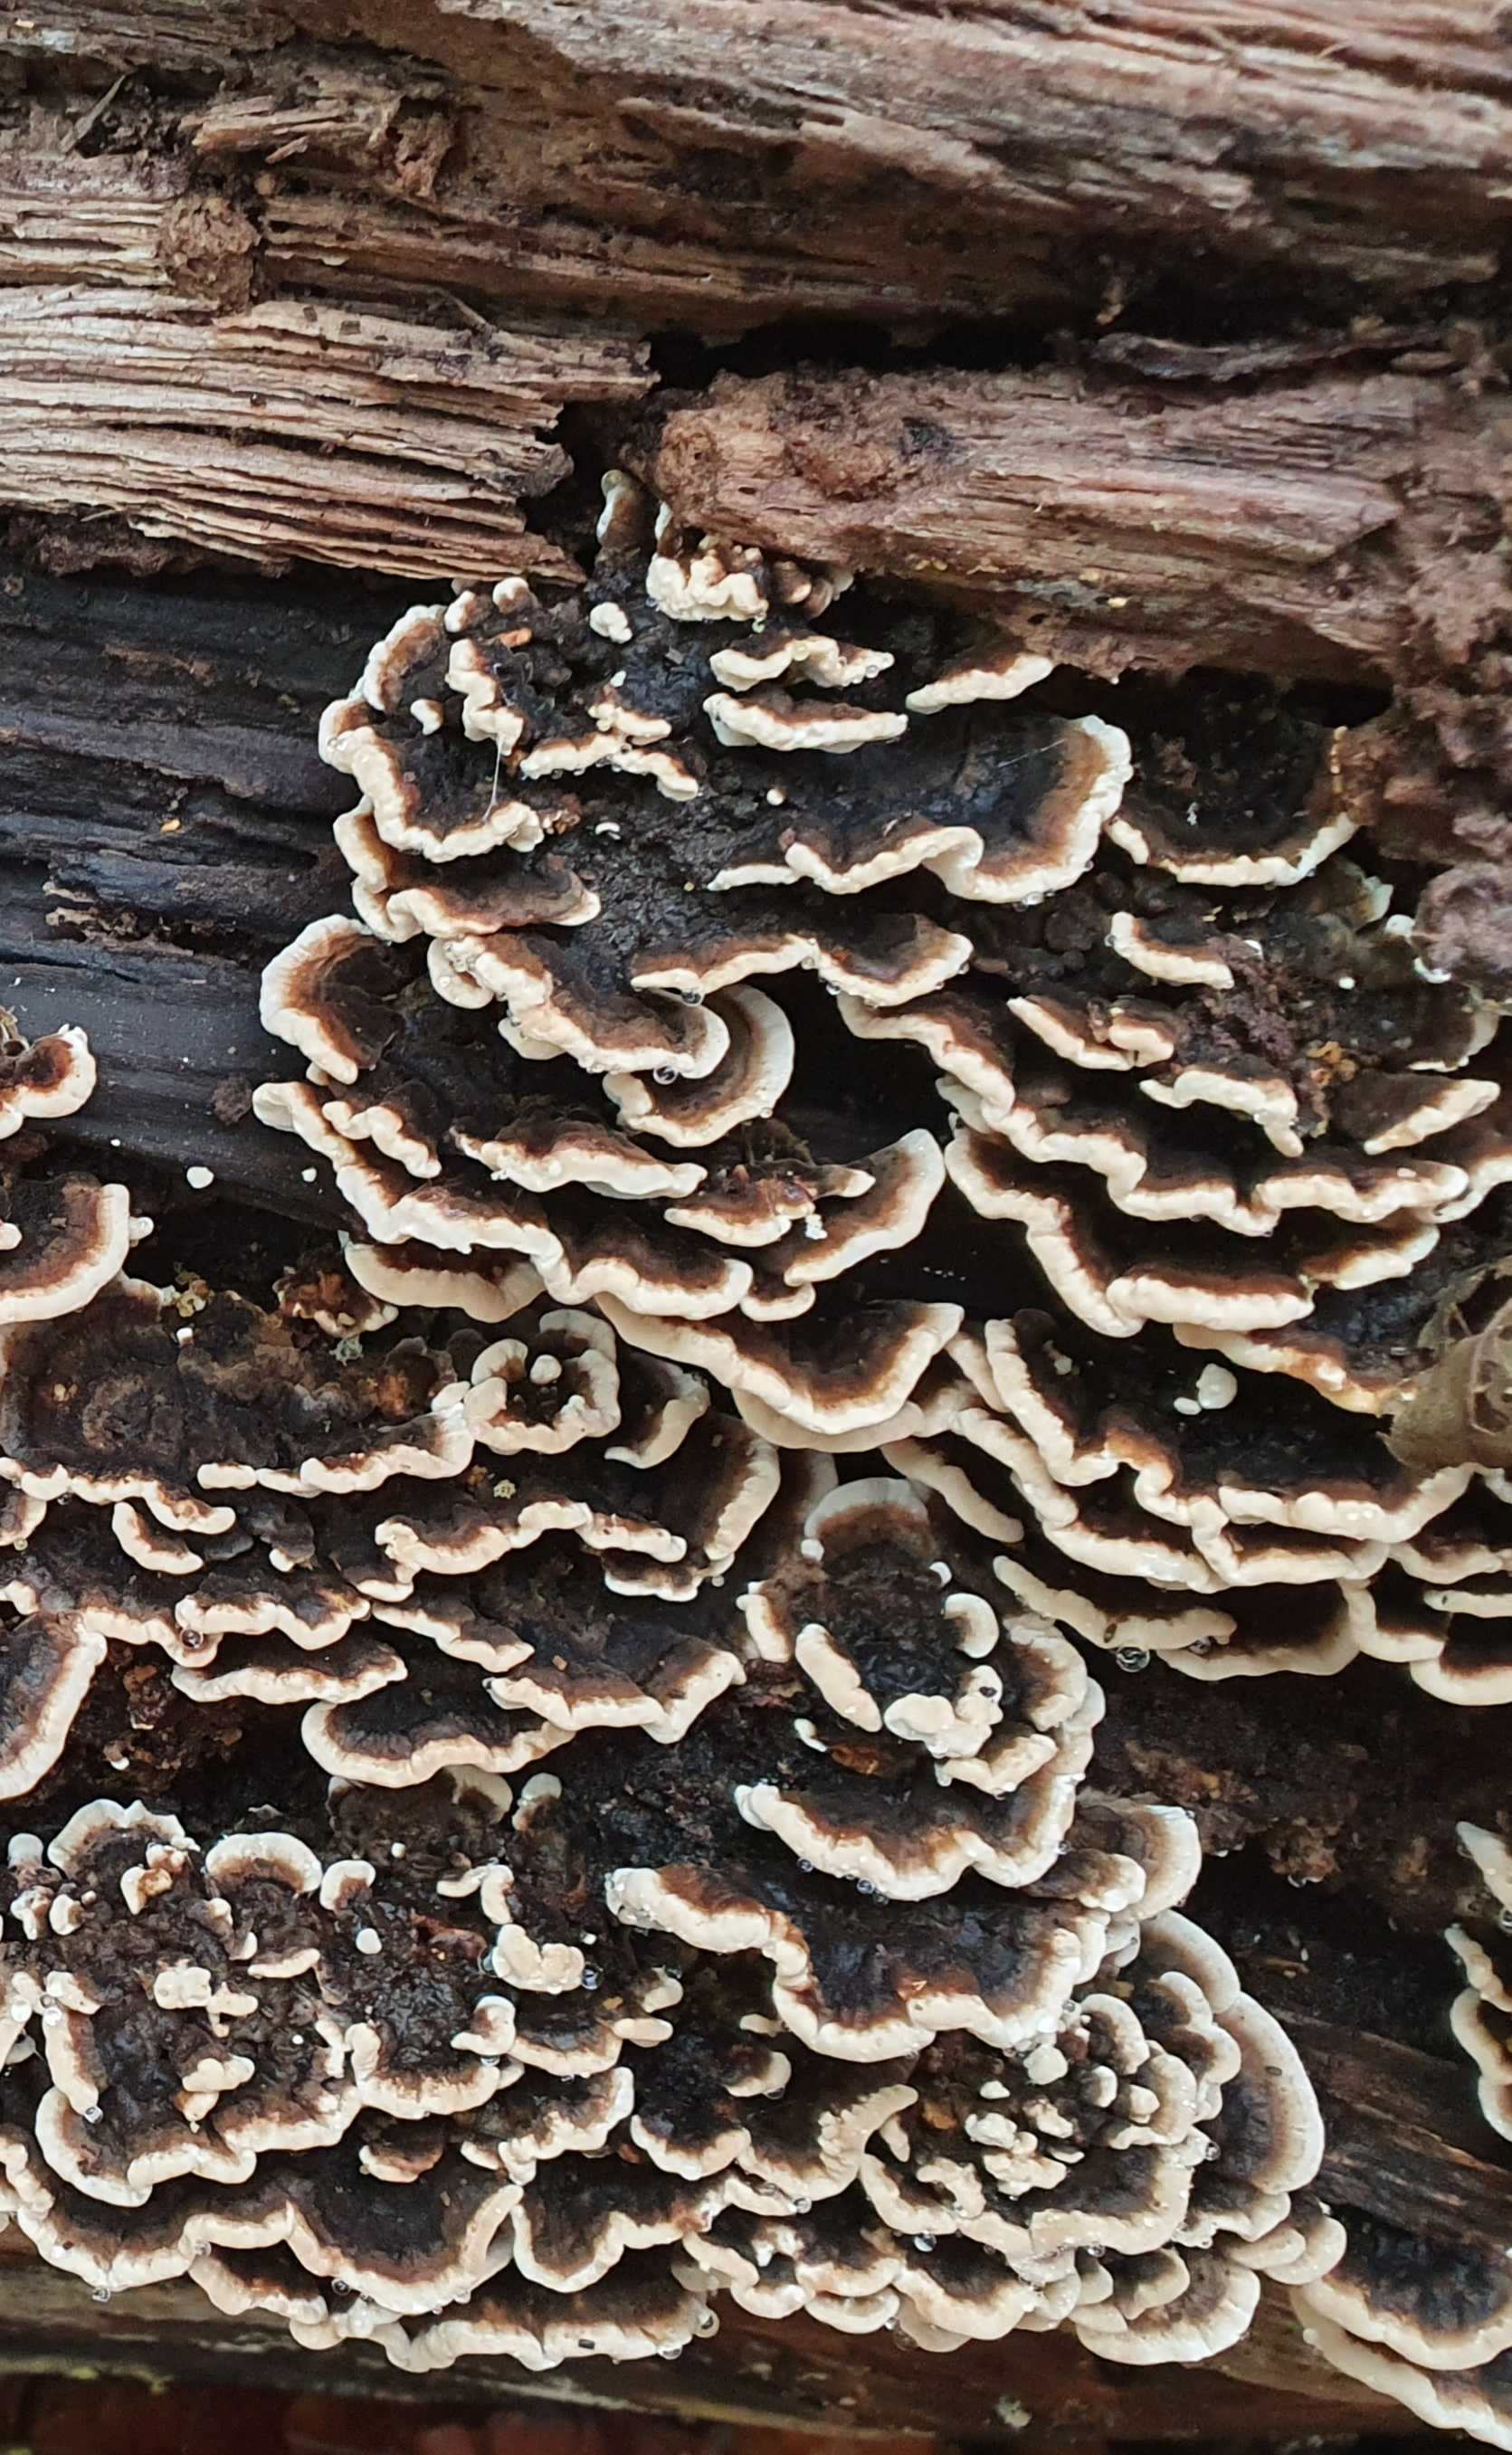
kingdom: Fungi
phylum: Basidiomycota
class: Agaricomycetes
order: Polyporales
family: Polyporaceae
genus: Trametes
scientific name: Trametes versicolor
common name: broget læderporesvamp
